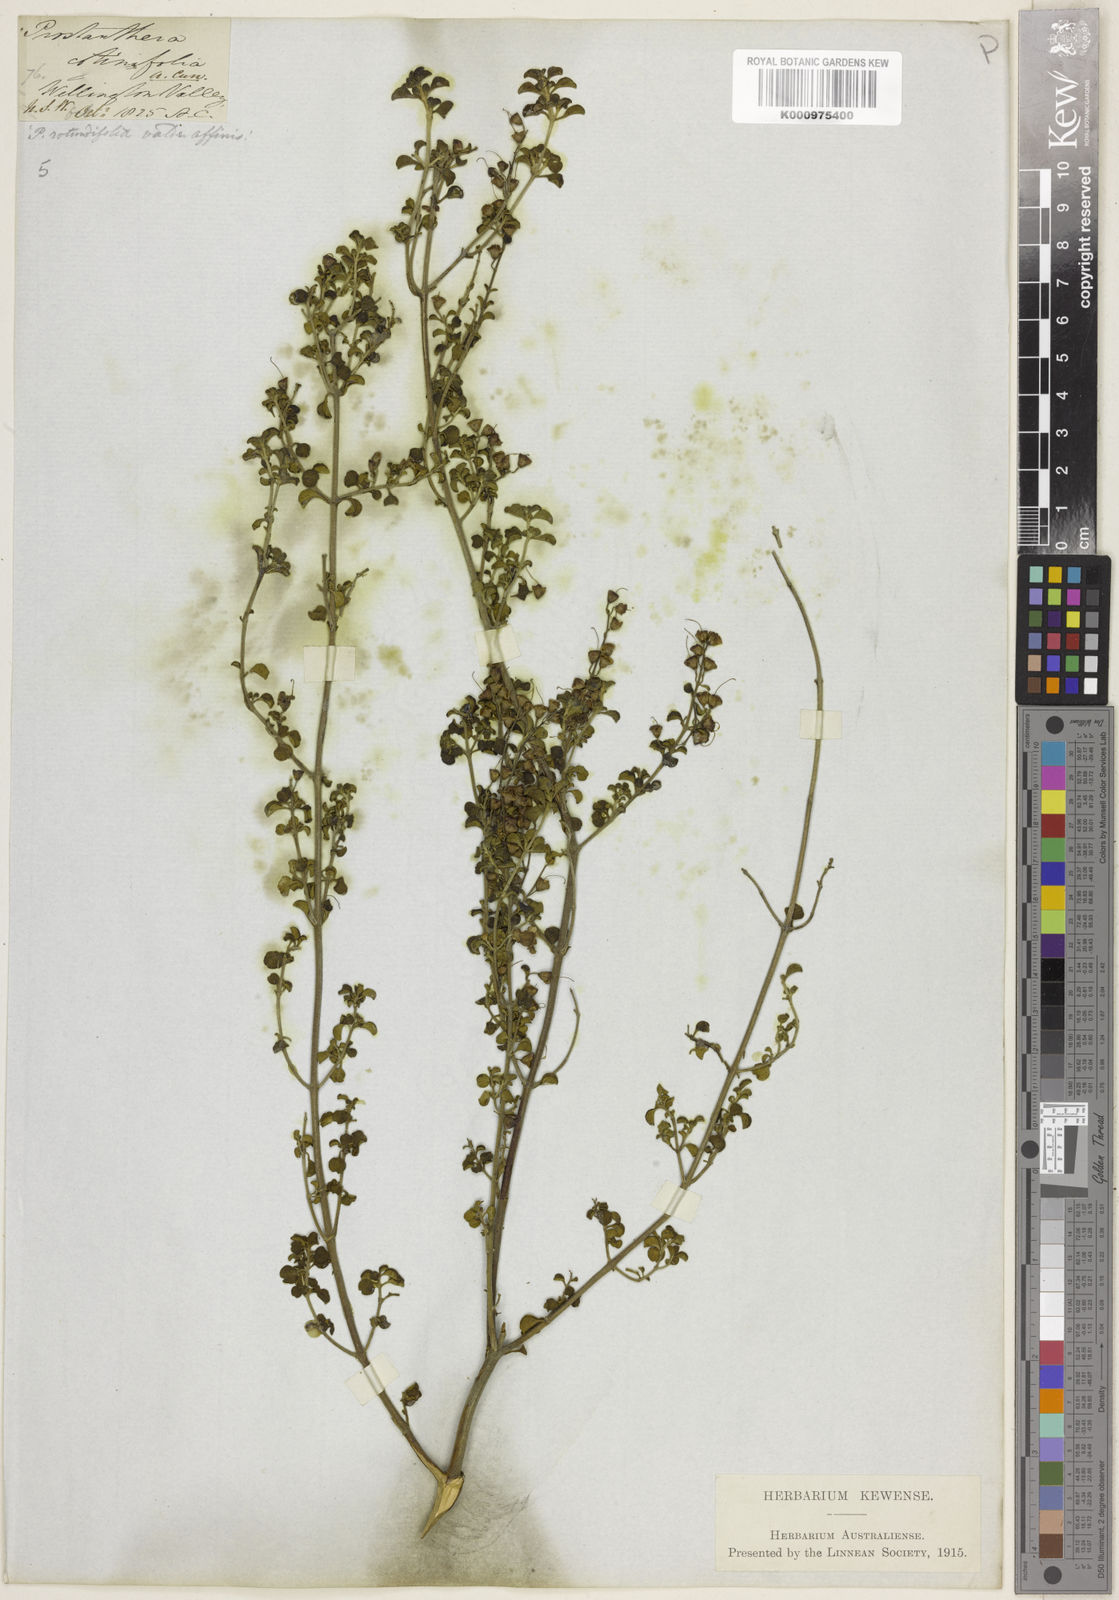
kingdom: Plantae
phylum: Tracheophyta
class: Magnoliopsida
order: Lamiales
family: Lamiaceae
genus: Prostanthera
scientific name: Prostanthera rotundifolia
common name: Round-leaf mintbush
